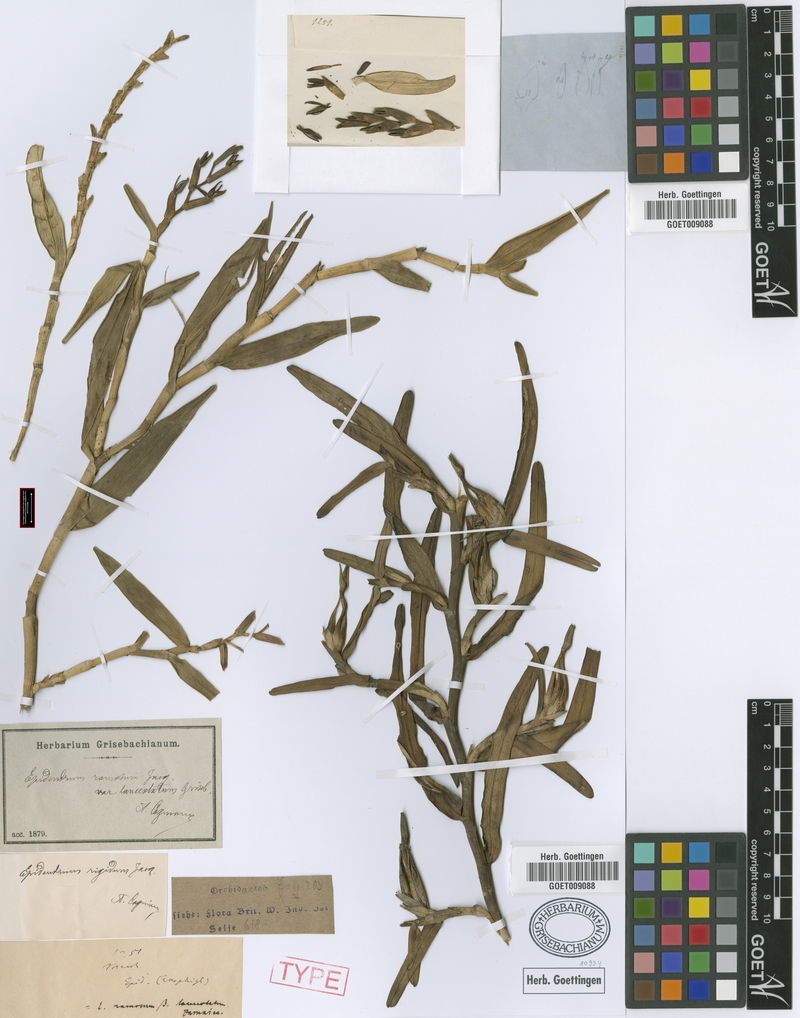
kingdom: Plantae
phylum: Tracheophyta
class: Liliopsida
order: Asparagales
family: Orchidaceae
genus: Epidendrum
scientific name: Epidendrum antillanum
